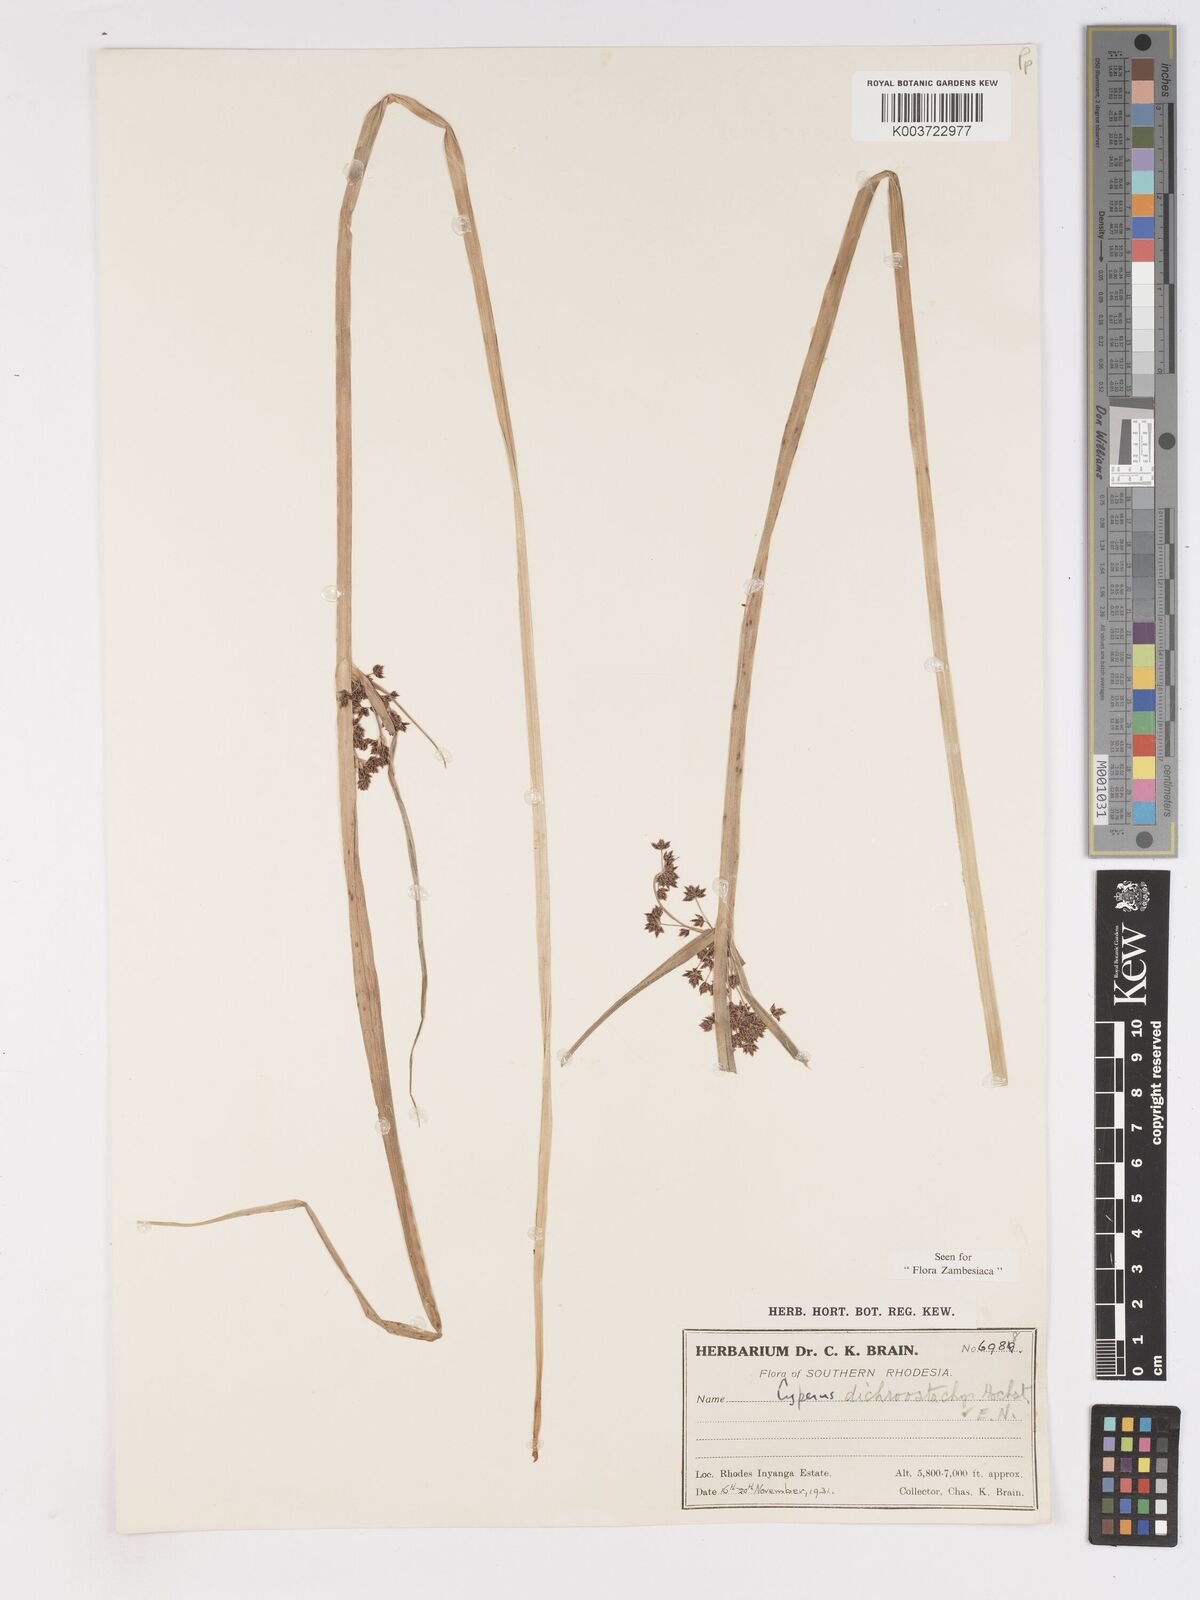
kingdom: Plantae
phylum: Tracheophyta
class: Liliopsida
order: Poales
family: Cyperaceae
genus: Cyperus
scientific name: Cyperus dichrostachyus
